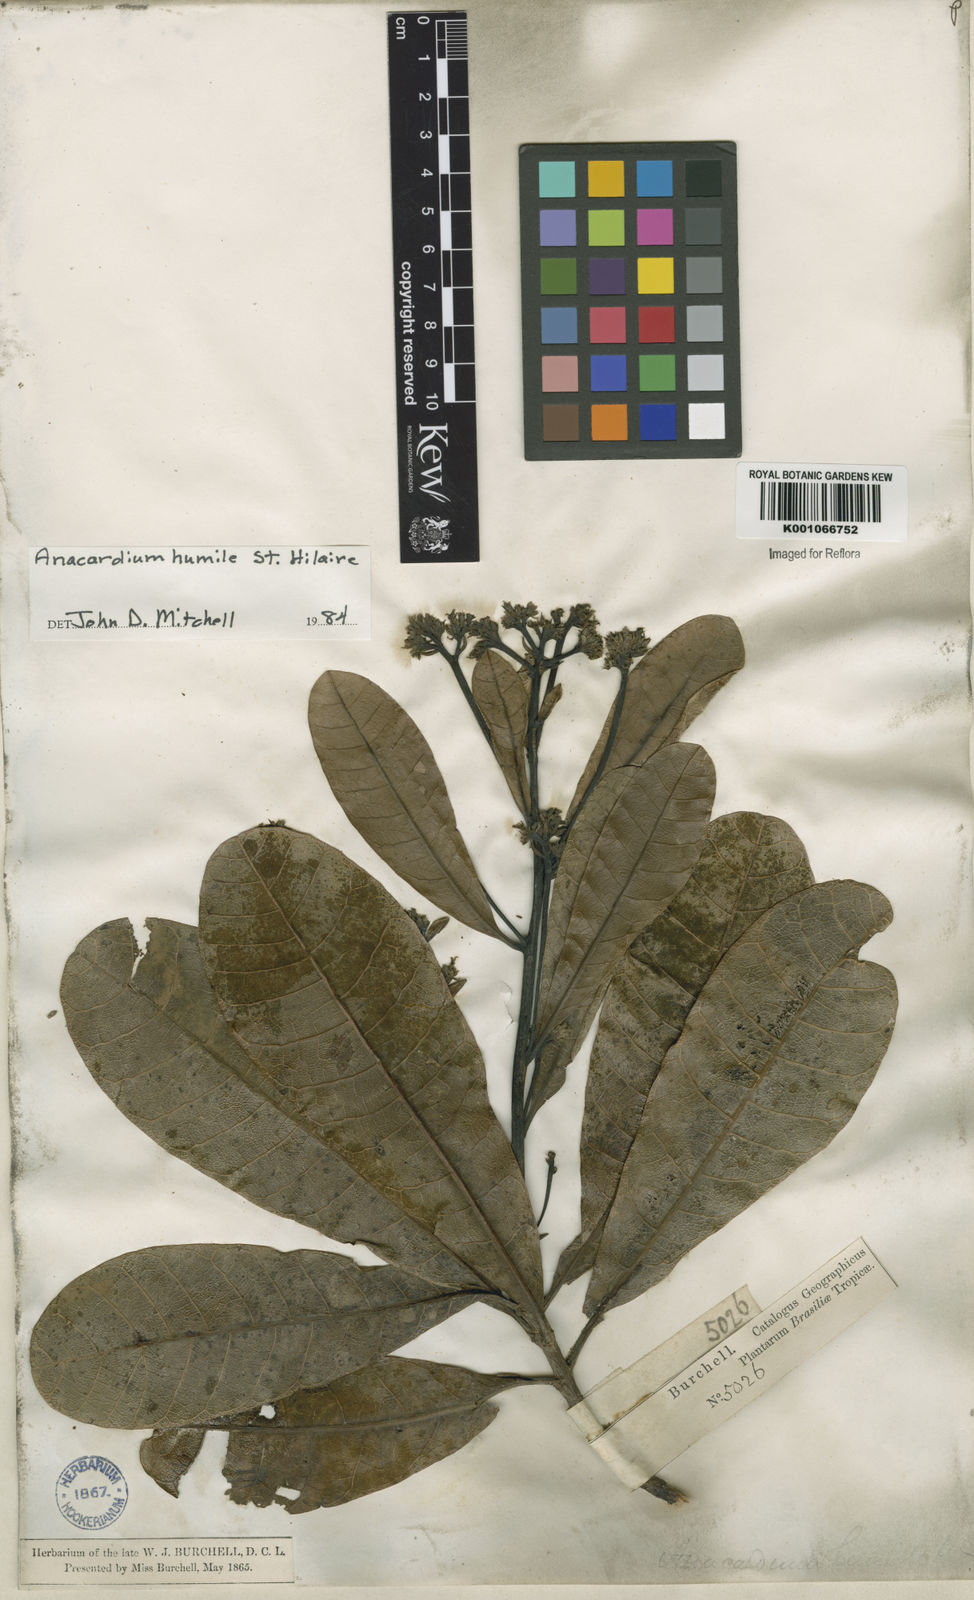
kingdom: Plantae
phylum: Tracheophyta
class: Magnoliopsida
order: Sapindales
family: Anacardiaceae
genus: Anacardium
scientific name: Anacardium humile
